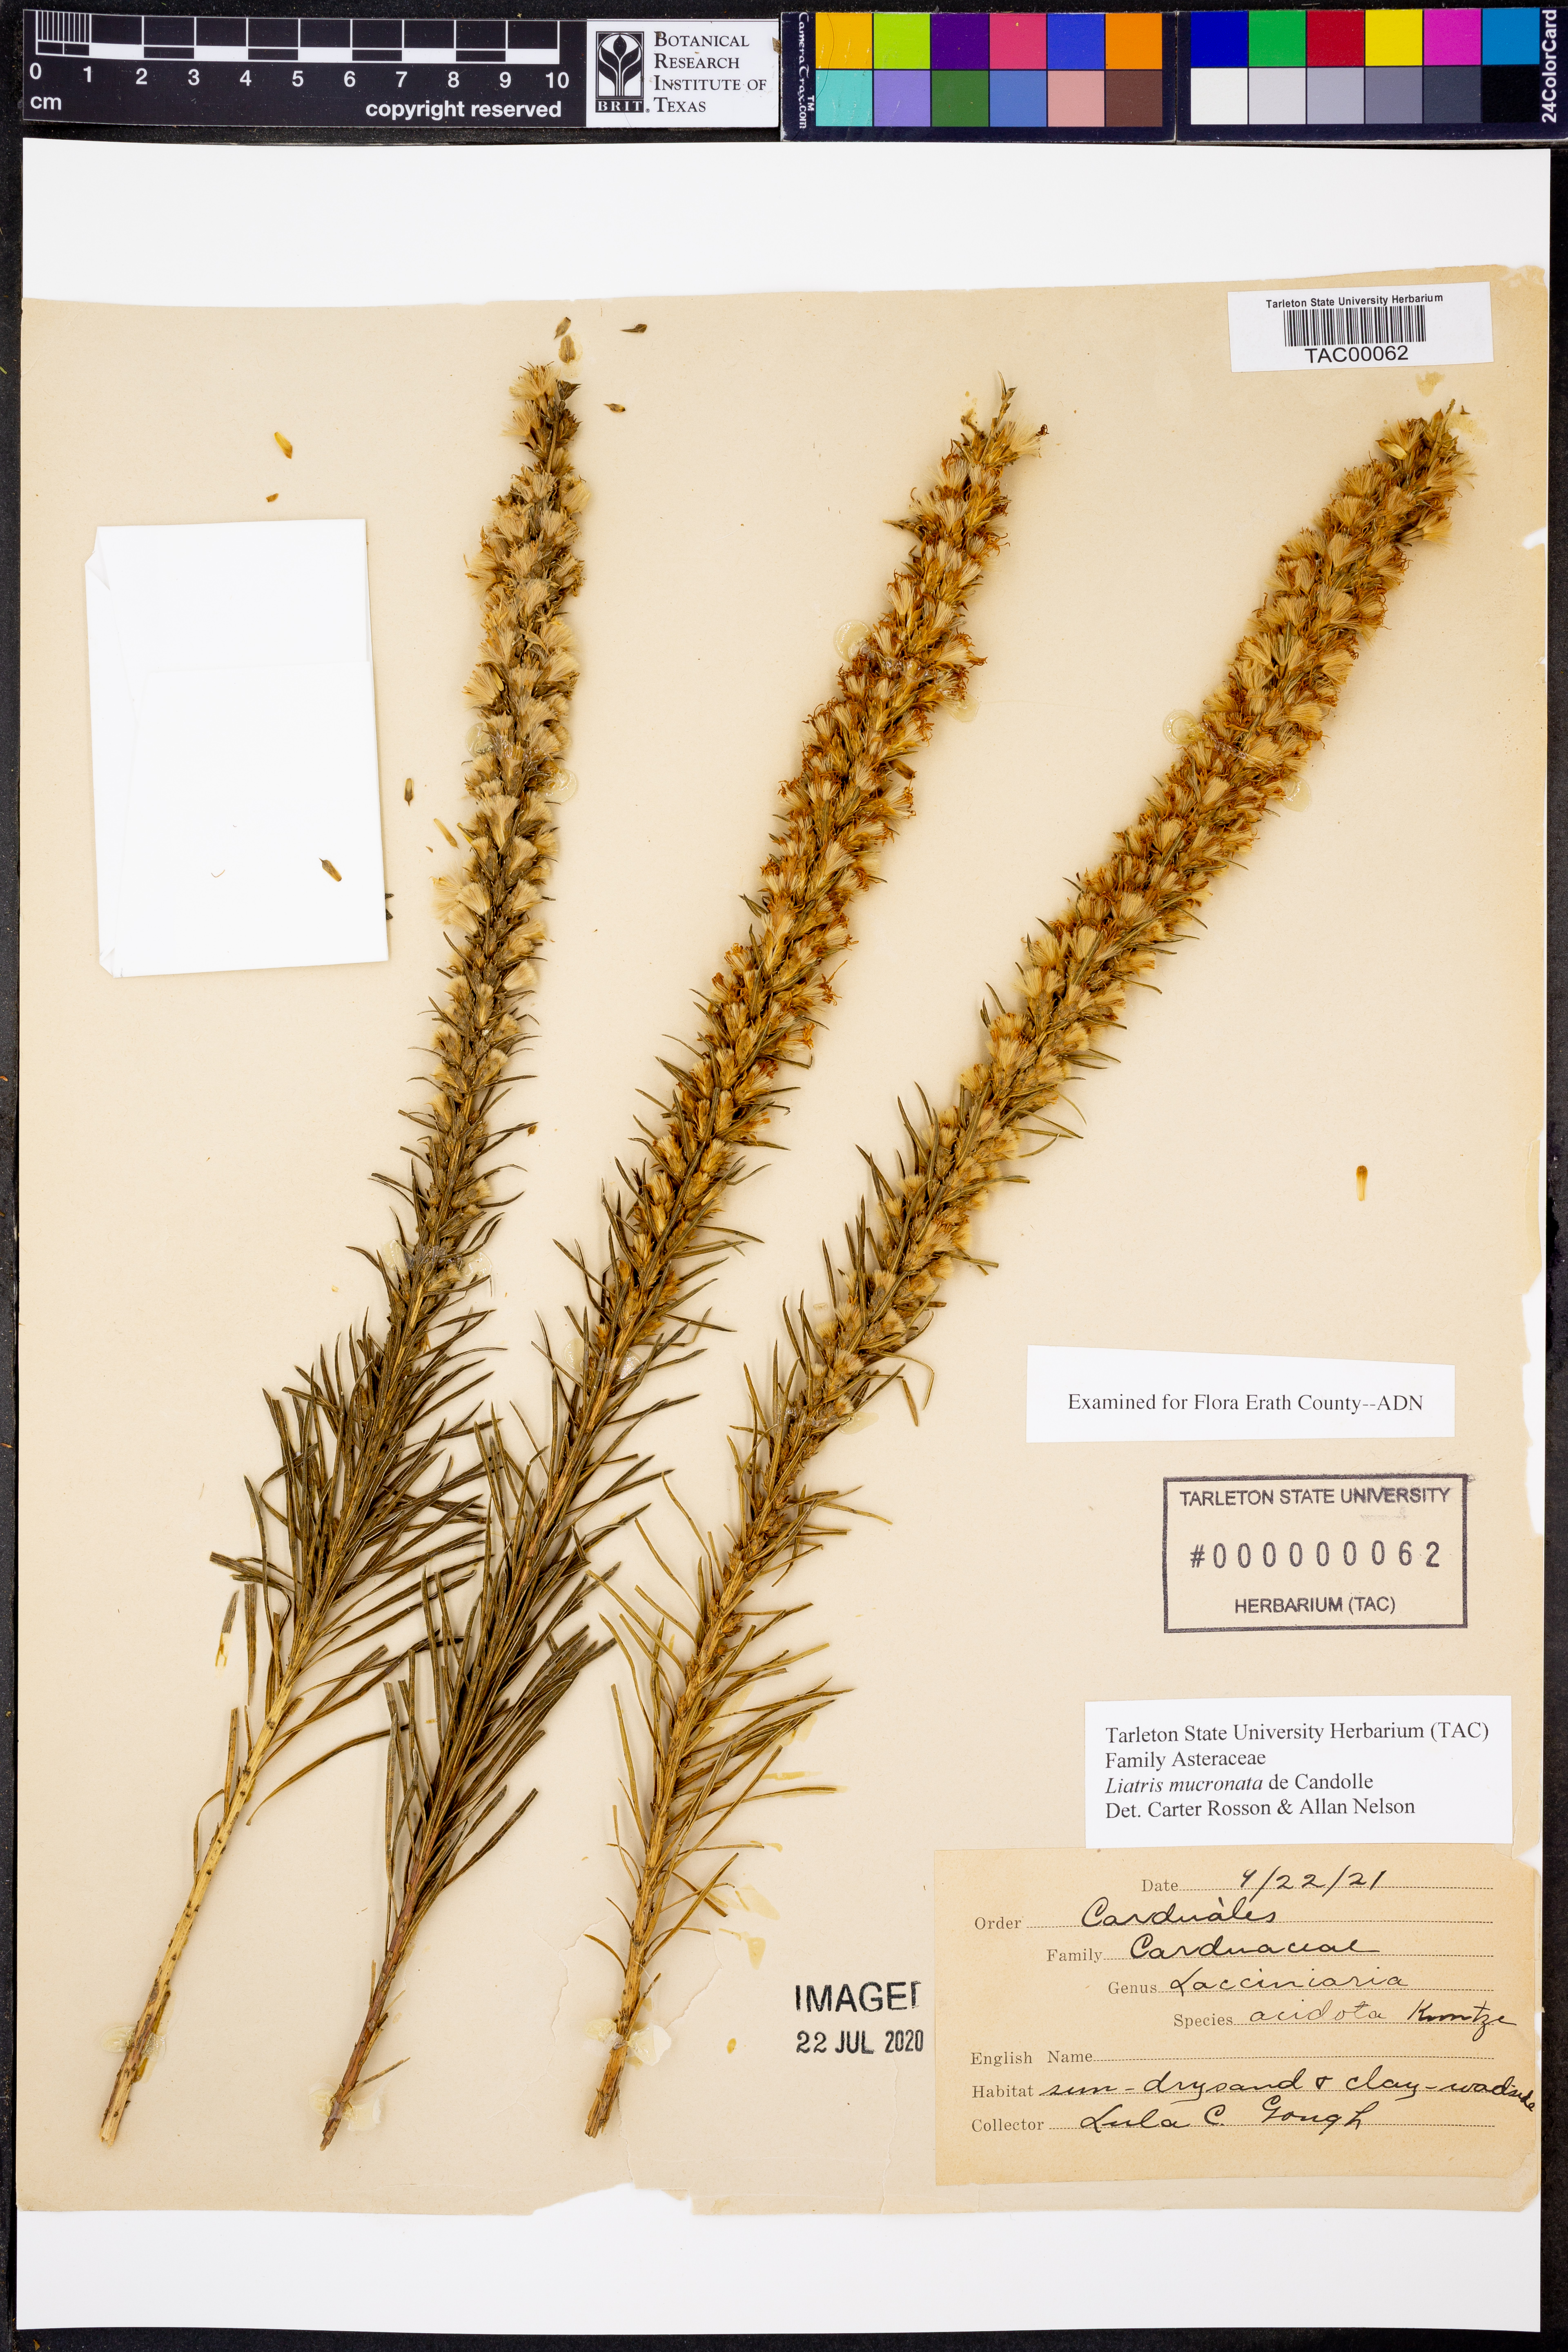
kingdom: Plantae
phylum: Tracheophyta
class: Magnoliopsida
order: Asterales
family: Asteraceae
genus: Liatris
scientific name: Liatris mucronata
